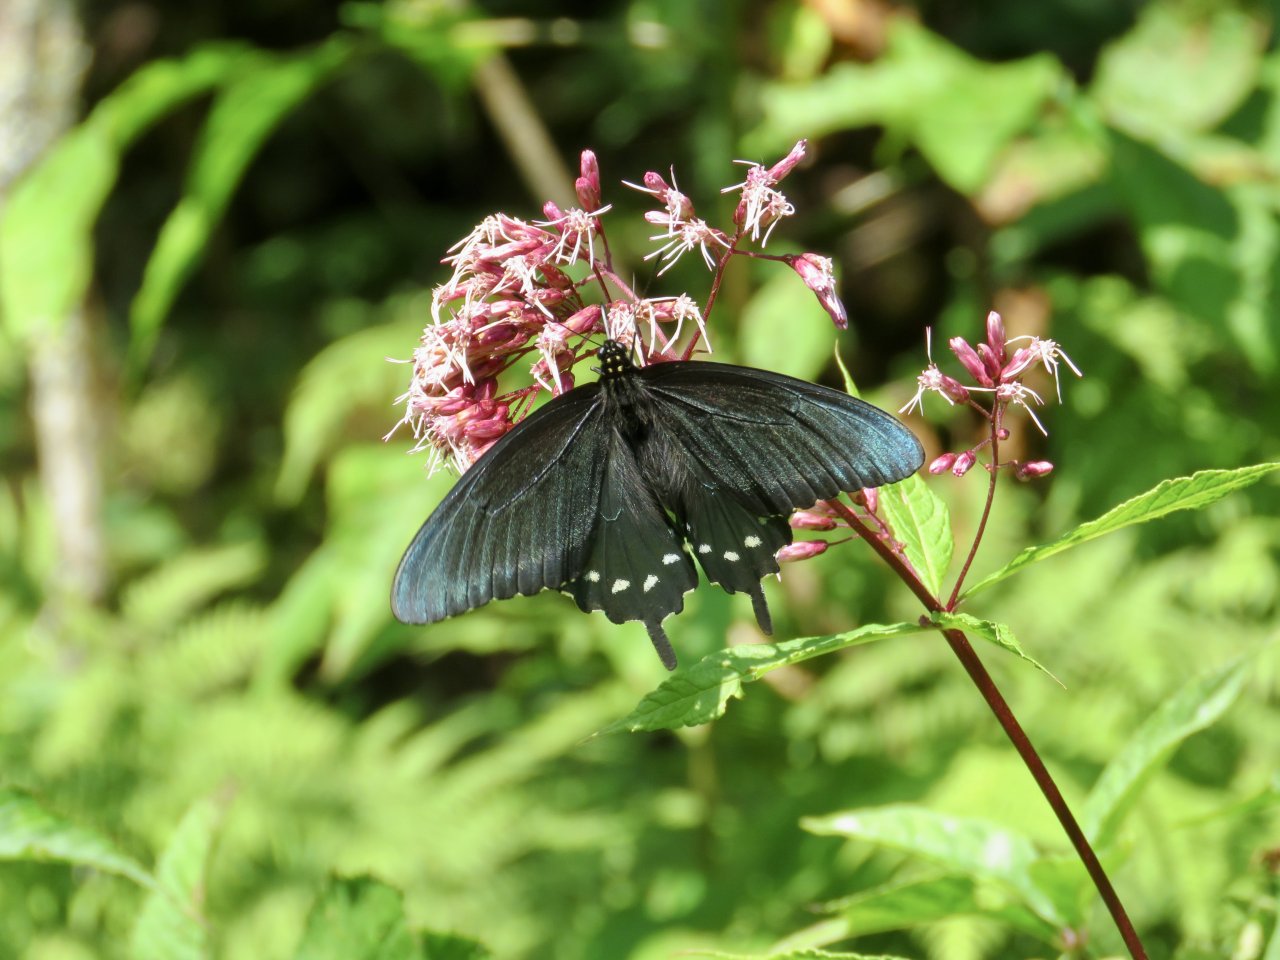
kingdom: Animalia
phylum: Arthropoda
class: Insecta
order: Lepidoptera
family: Papilionidae
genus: Battus
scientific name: Battus philenor
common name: Pipevine Swallowtail
